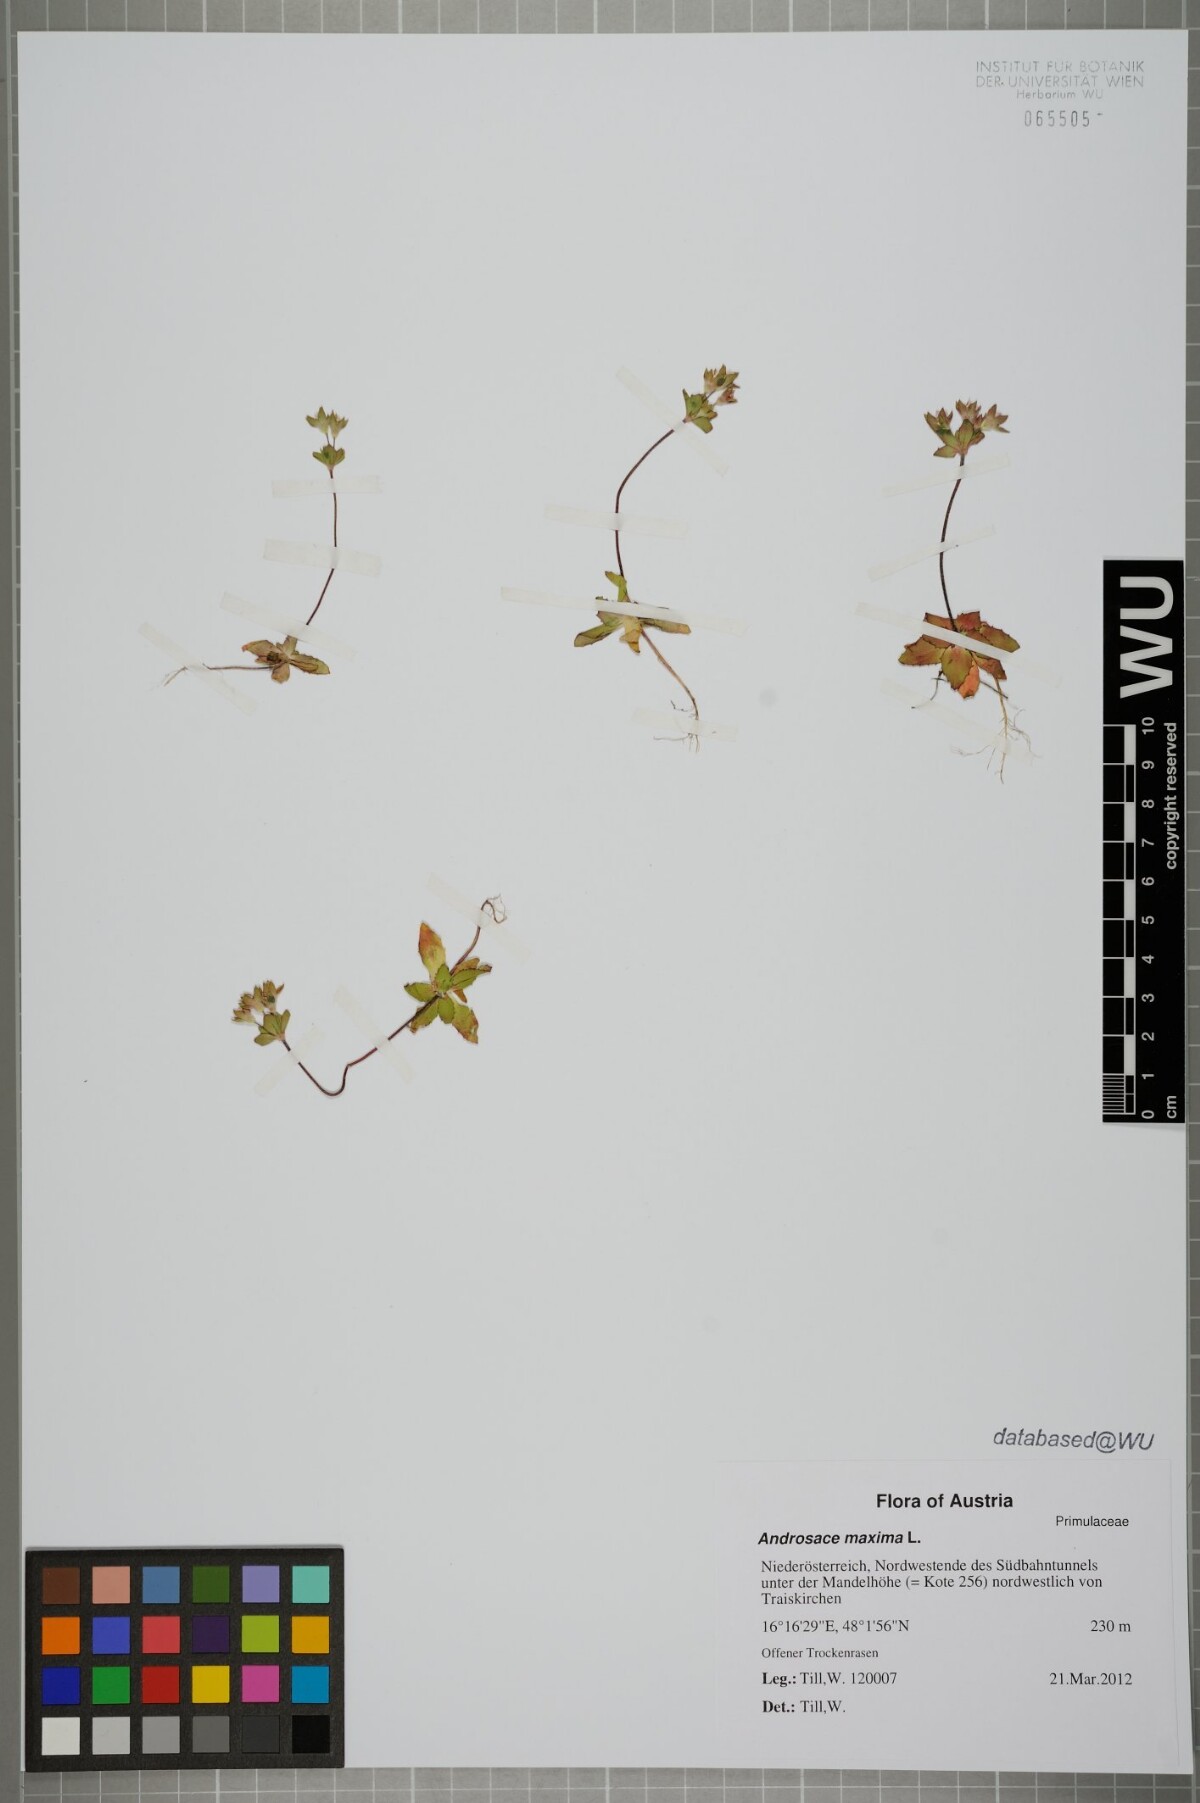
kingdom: Plantae
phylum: Tracheophyta
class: Magnoliopsida
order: Ericales
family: Primulaceae
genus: Androsace
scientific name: Androsace maxima
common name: Annual androsace
